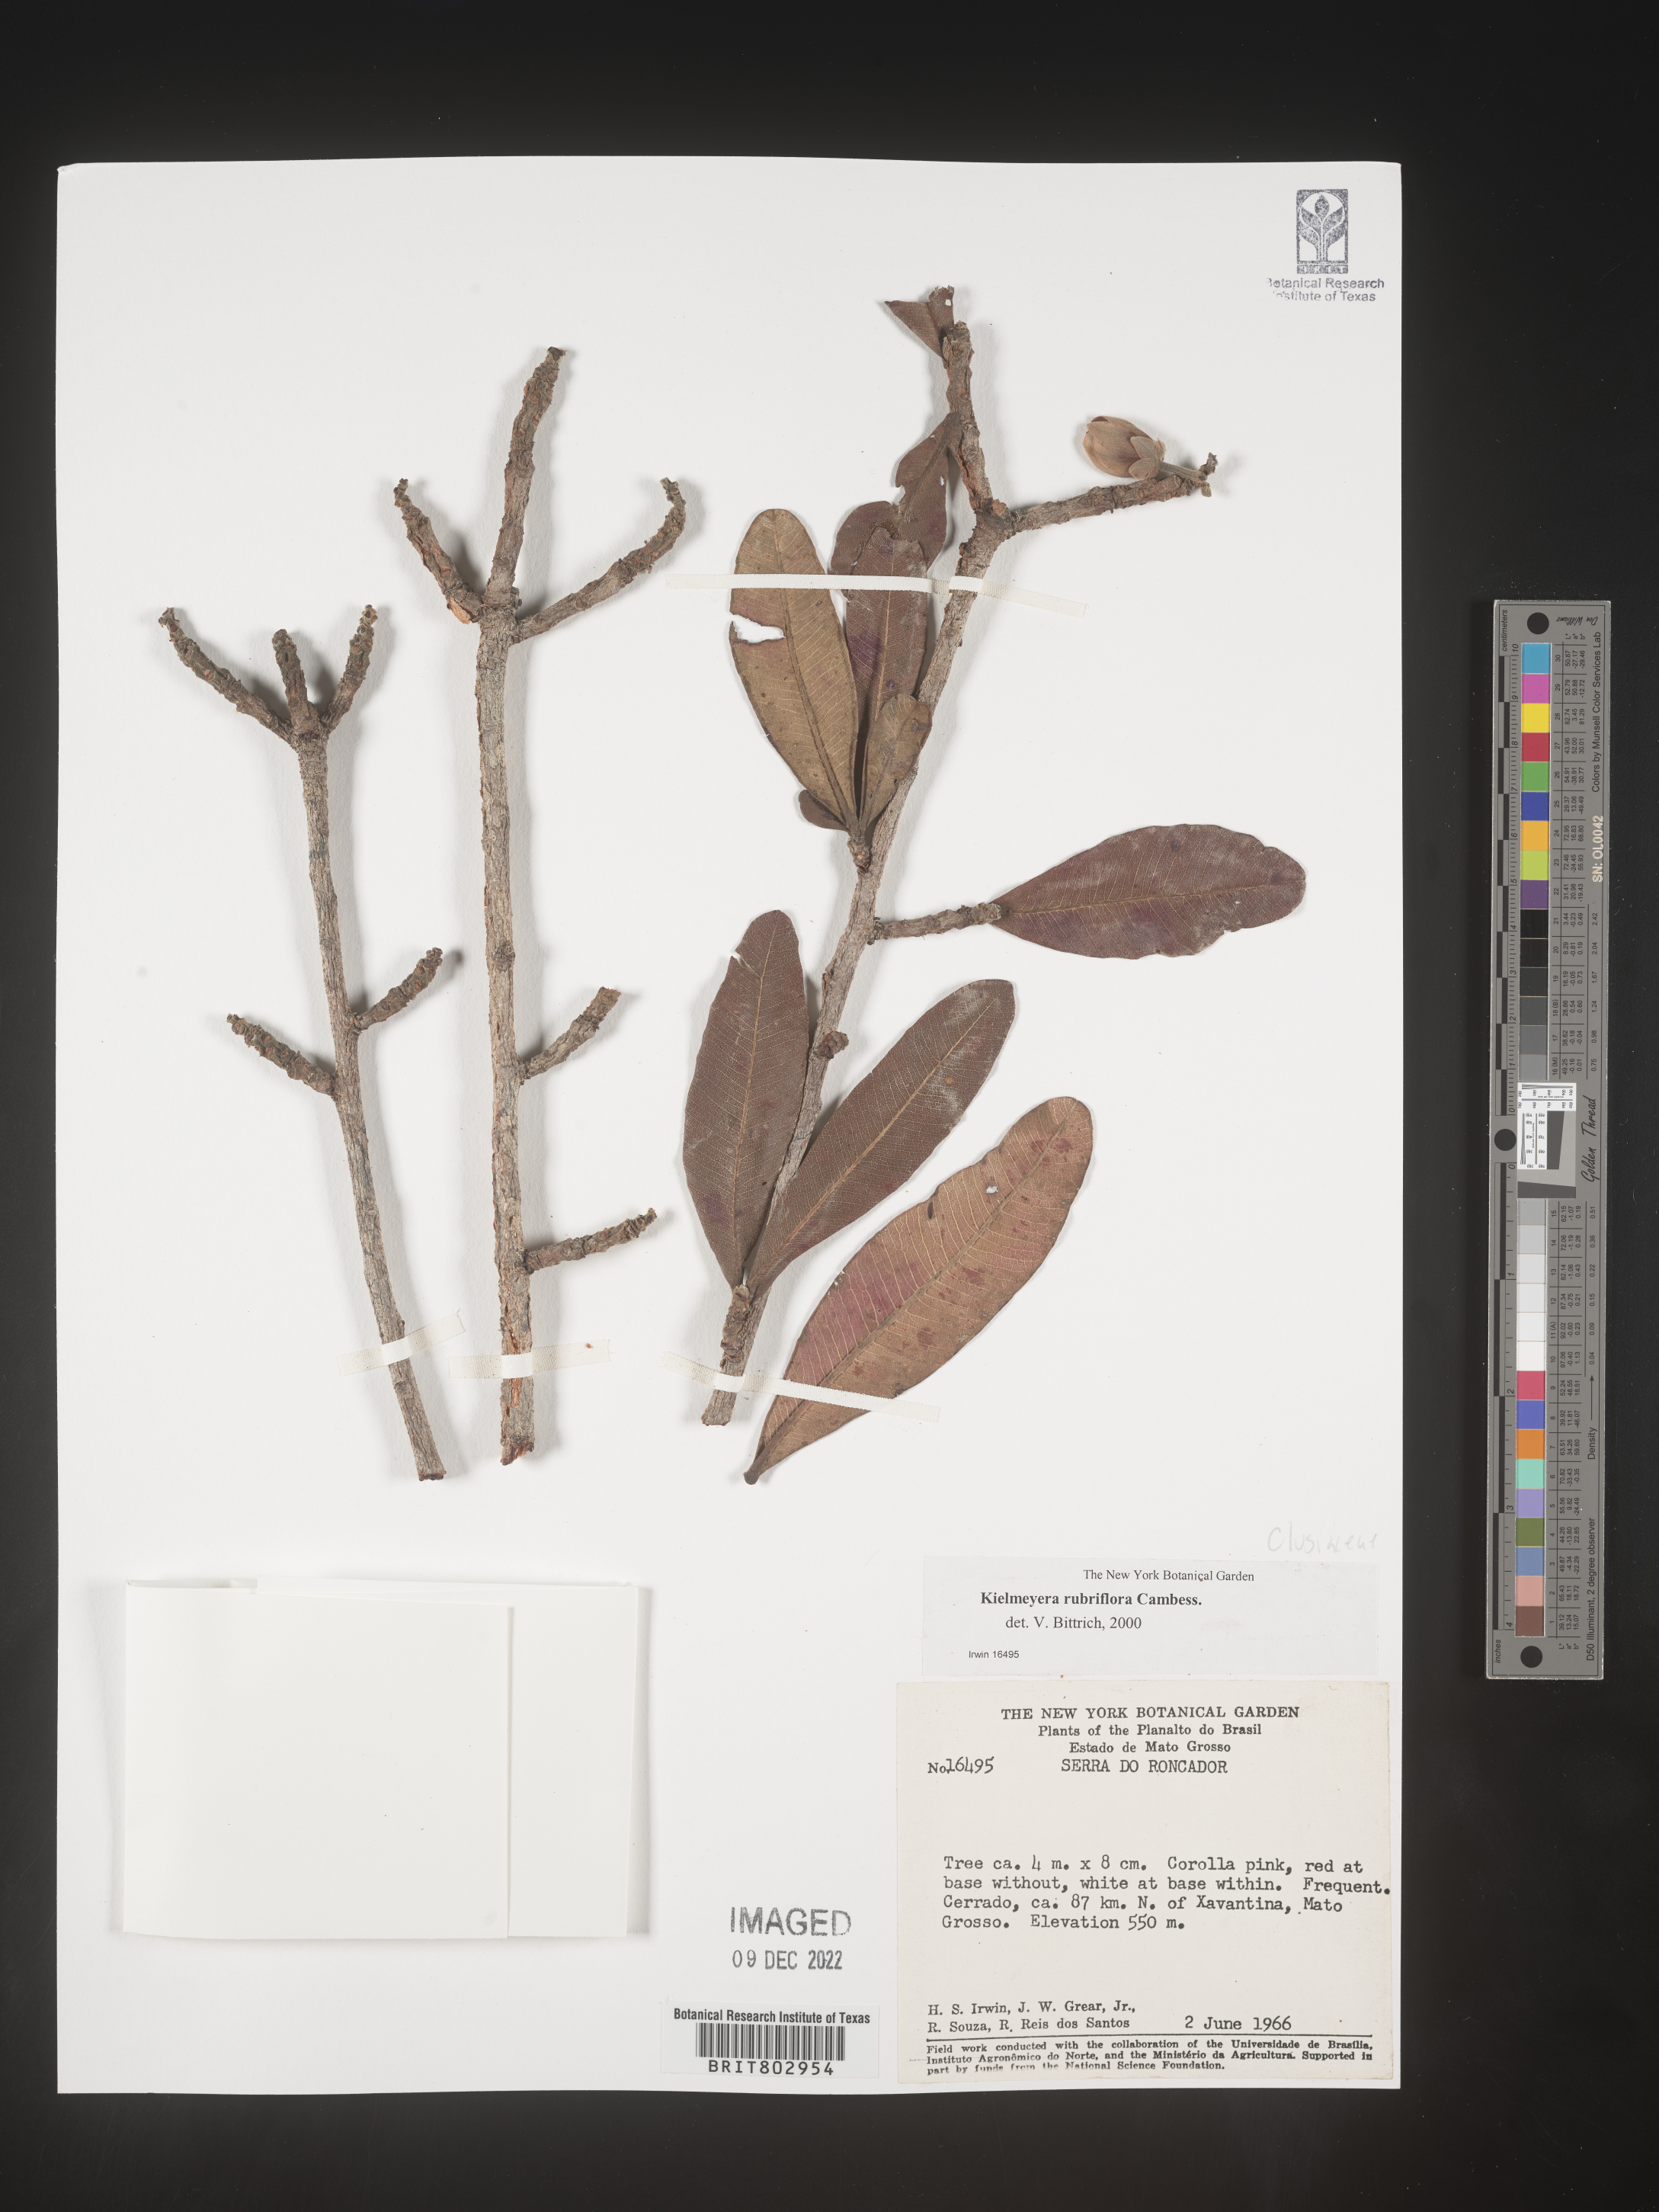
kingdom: Plantae
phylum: Tracheophyta
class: Magnoliopsida
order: Malpighiales
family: Calophyllaceae
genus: Kielmeyera
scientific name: Kielmeyera
